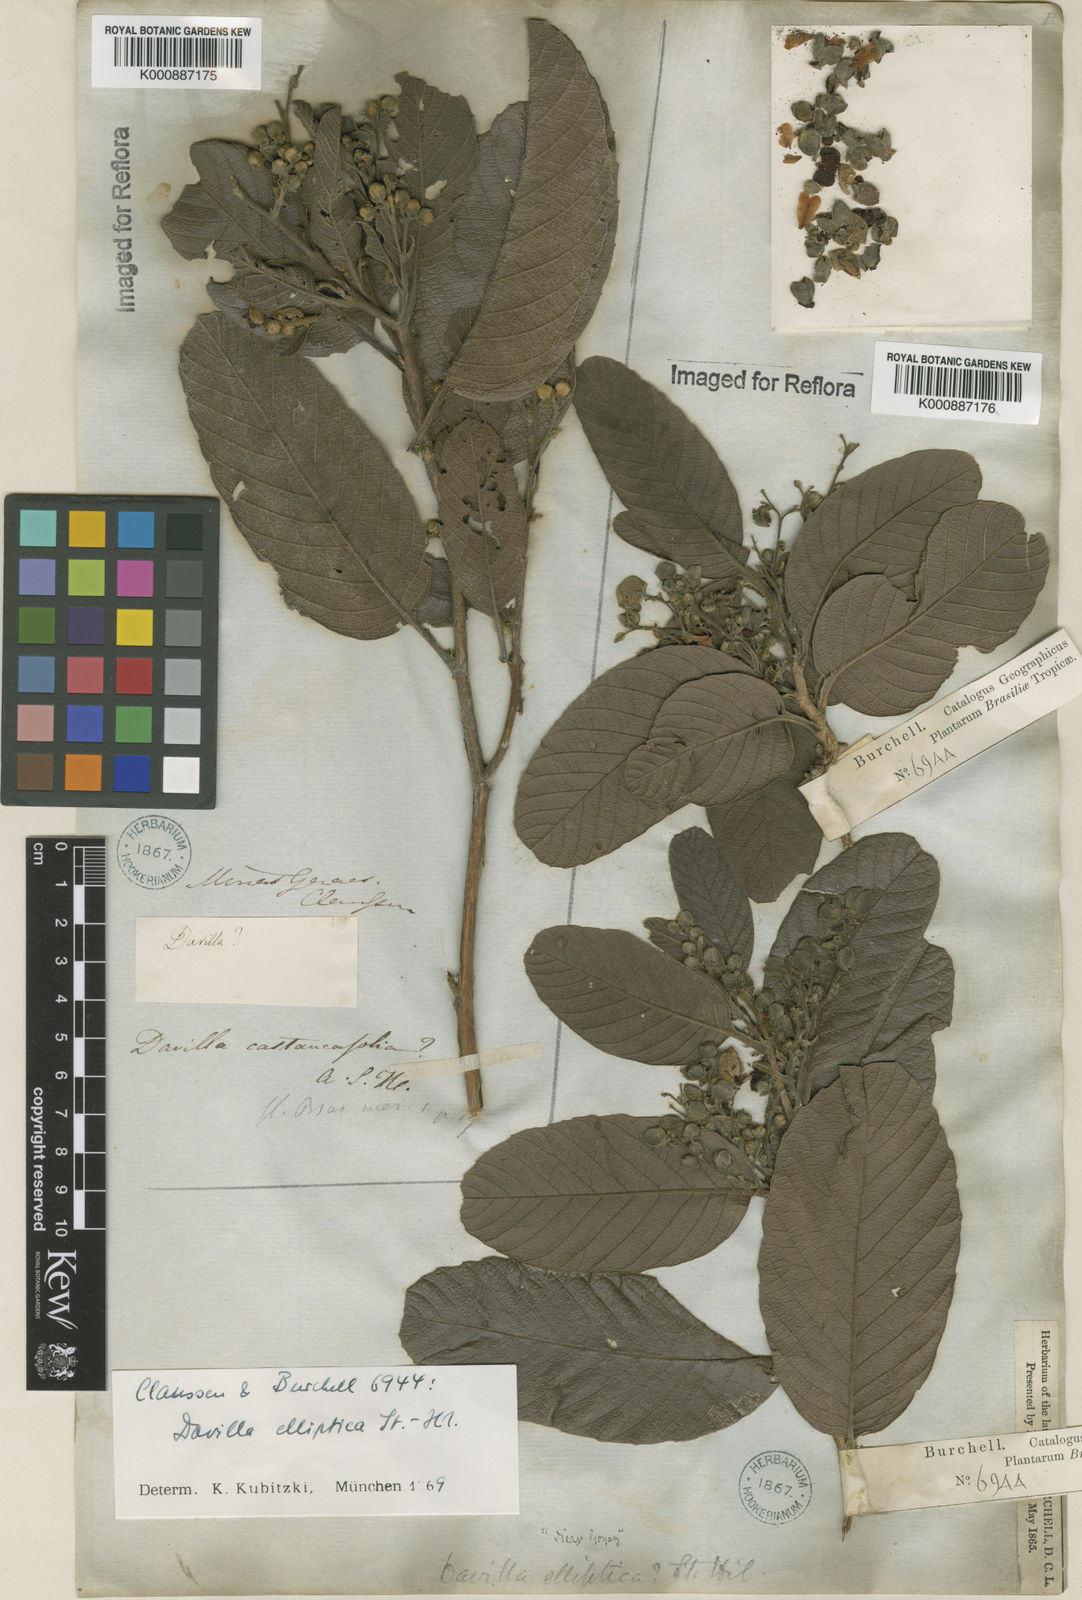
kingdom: Plantae
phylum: Tracheophyta
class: Magnoliopsida
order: Dilleniales
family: Dilleniaceae
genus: Davilla
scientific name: Davilla elliptica
